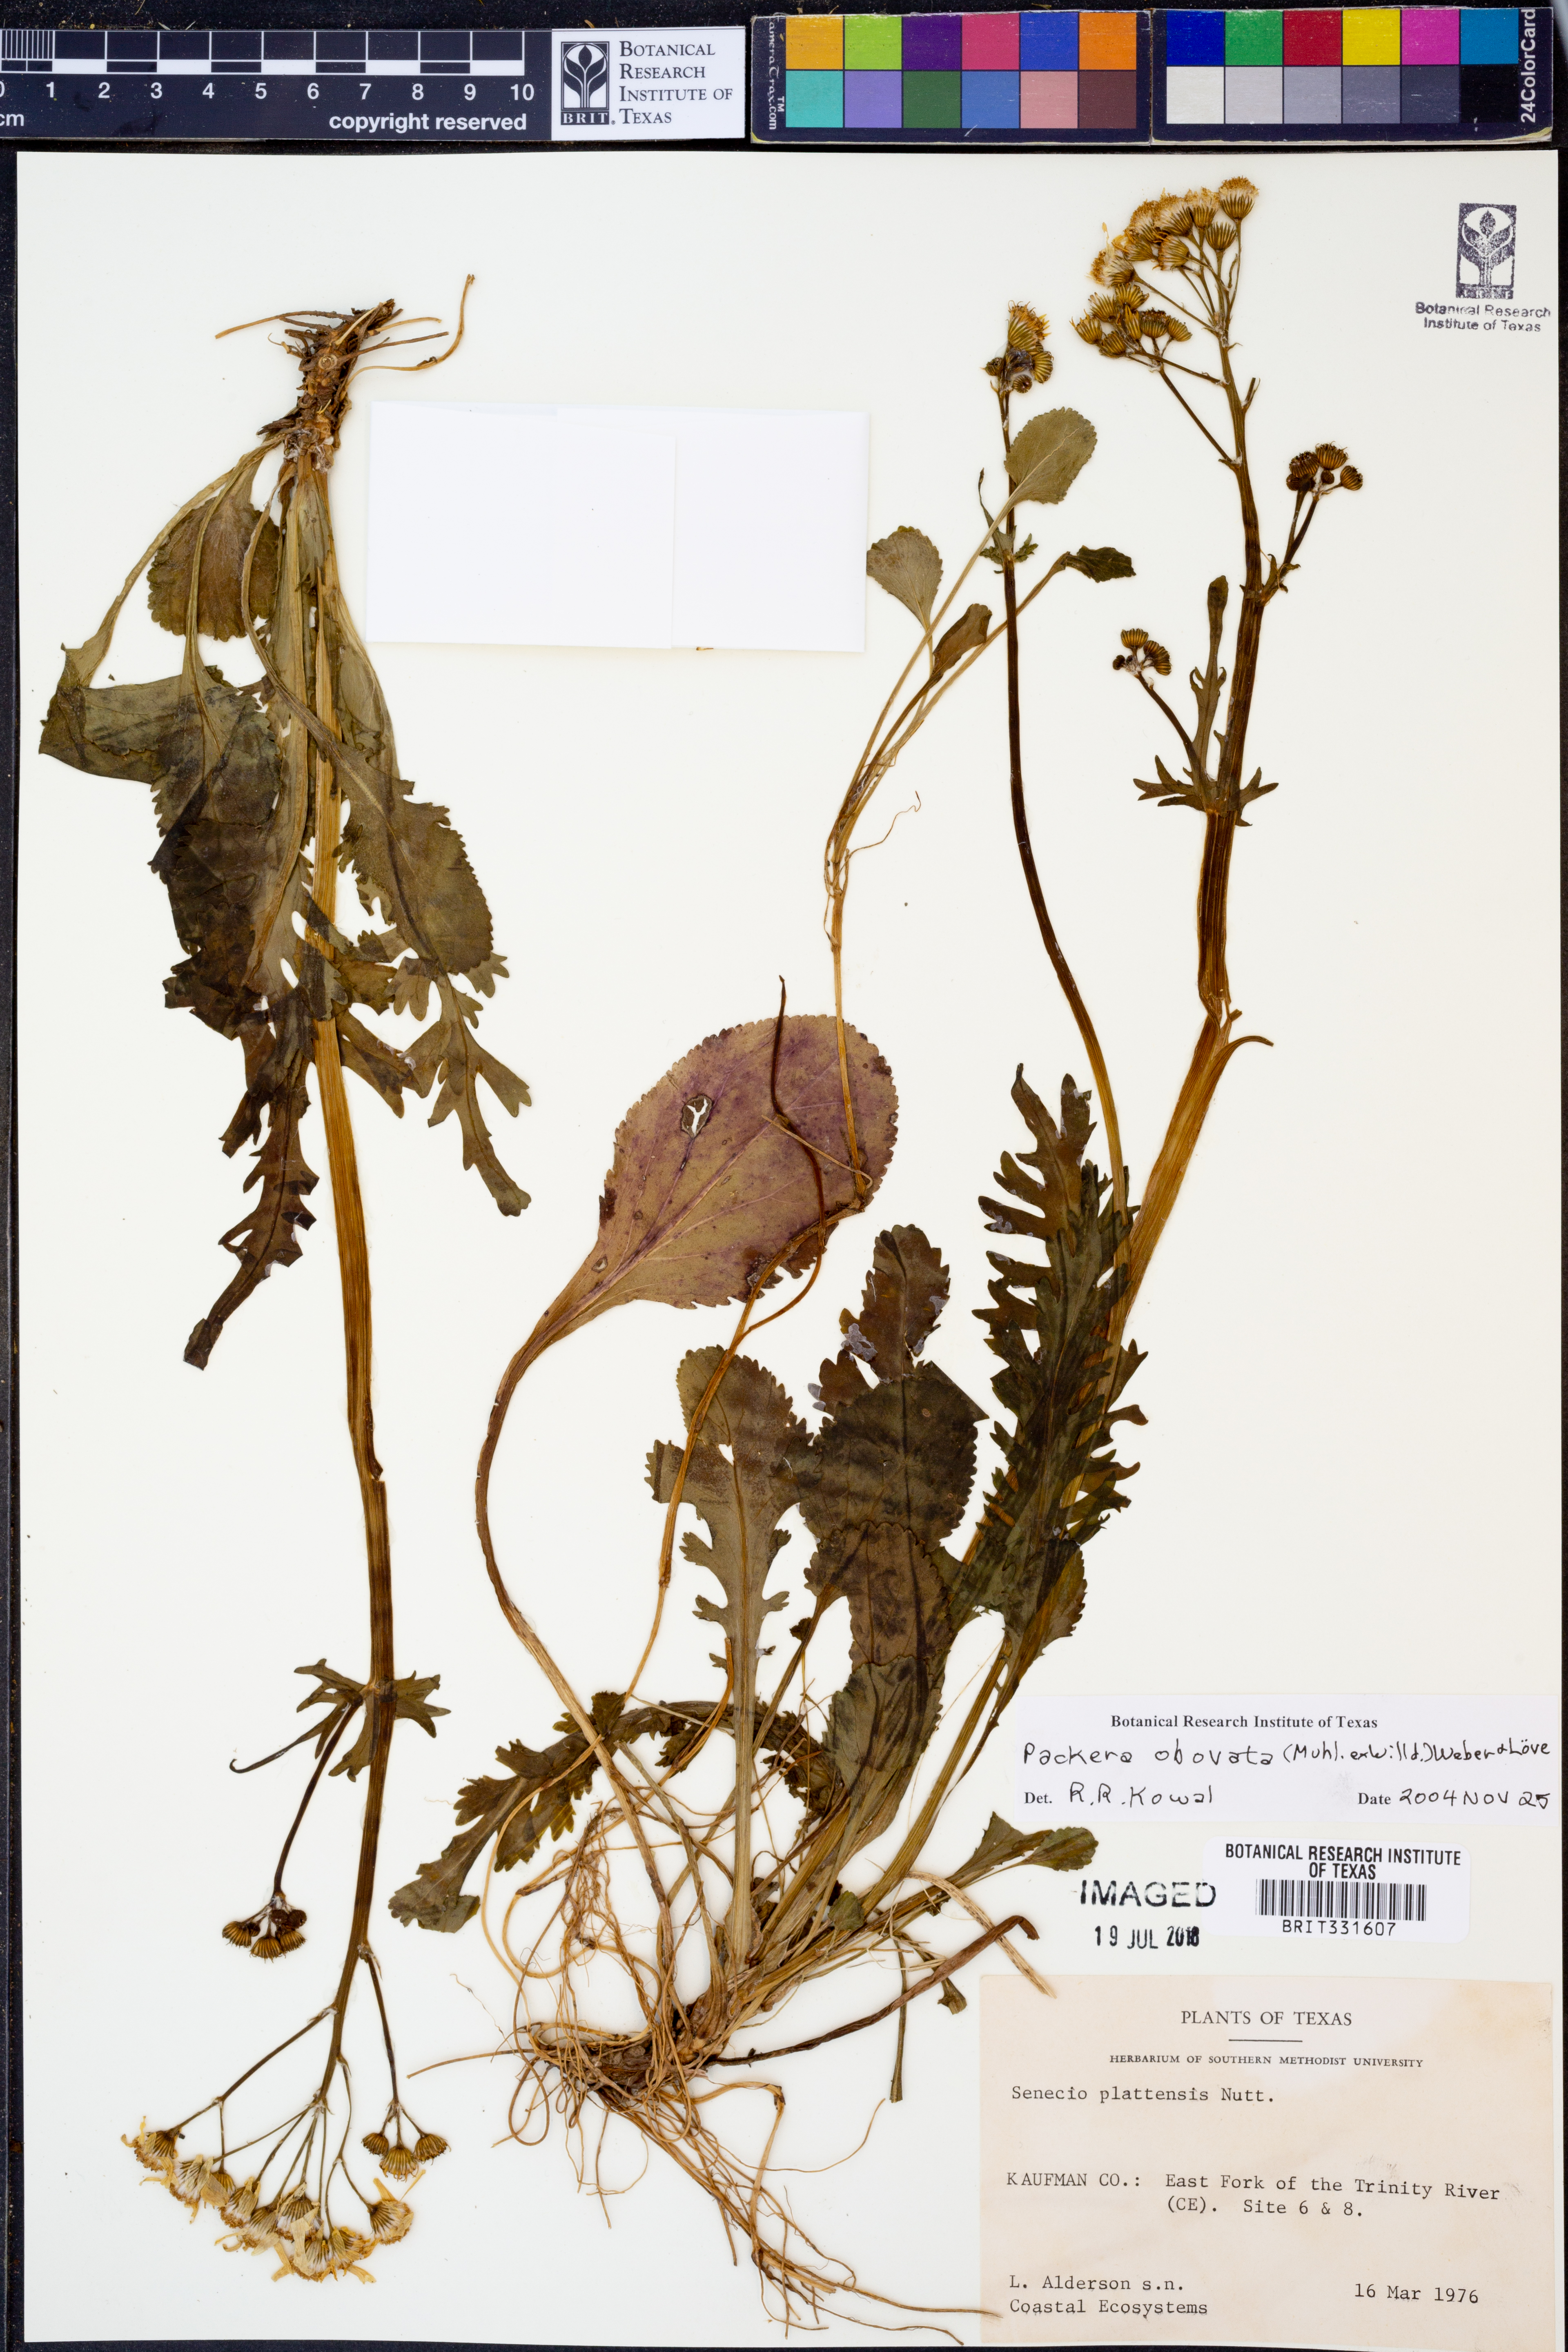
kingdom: Plantae
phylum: Tracheophyta
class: Magnoliopsida
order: Asterales
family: Asteraceae
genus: Packera
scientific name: Packera obovata
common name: Round-leaf ragwort
